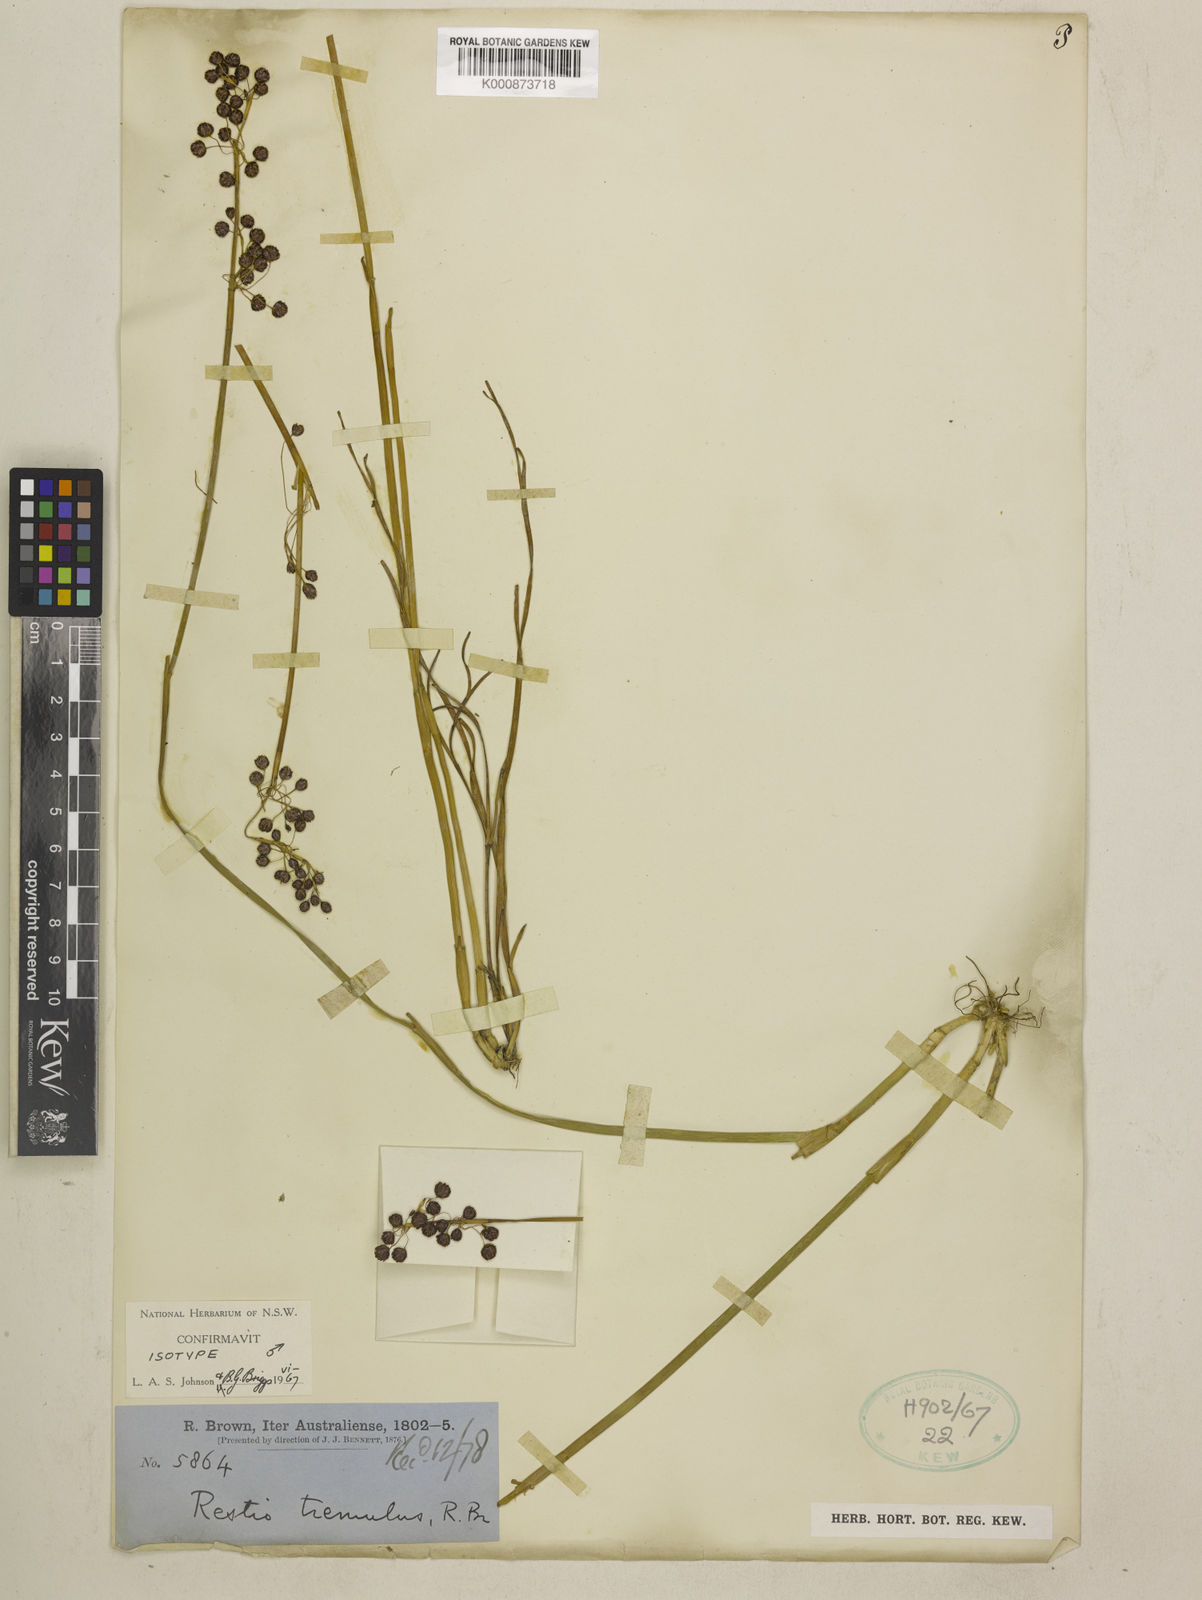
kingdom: Plantae
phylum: Tracheophyta
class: Liliopsida
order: Poales
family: Restionaceae
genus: Tremulina
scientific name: Tremulina tremula
